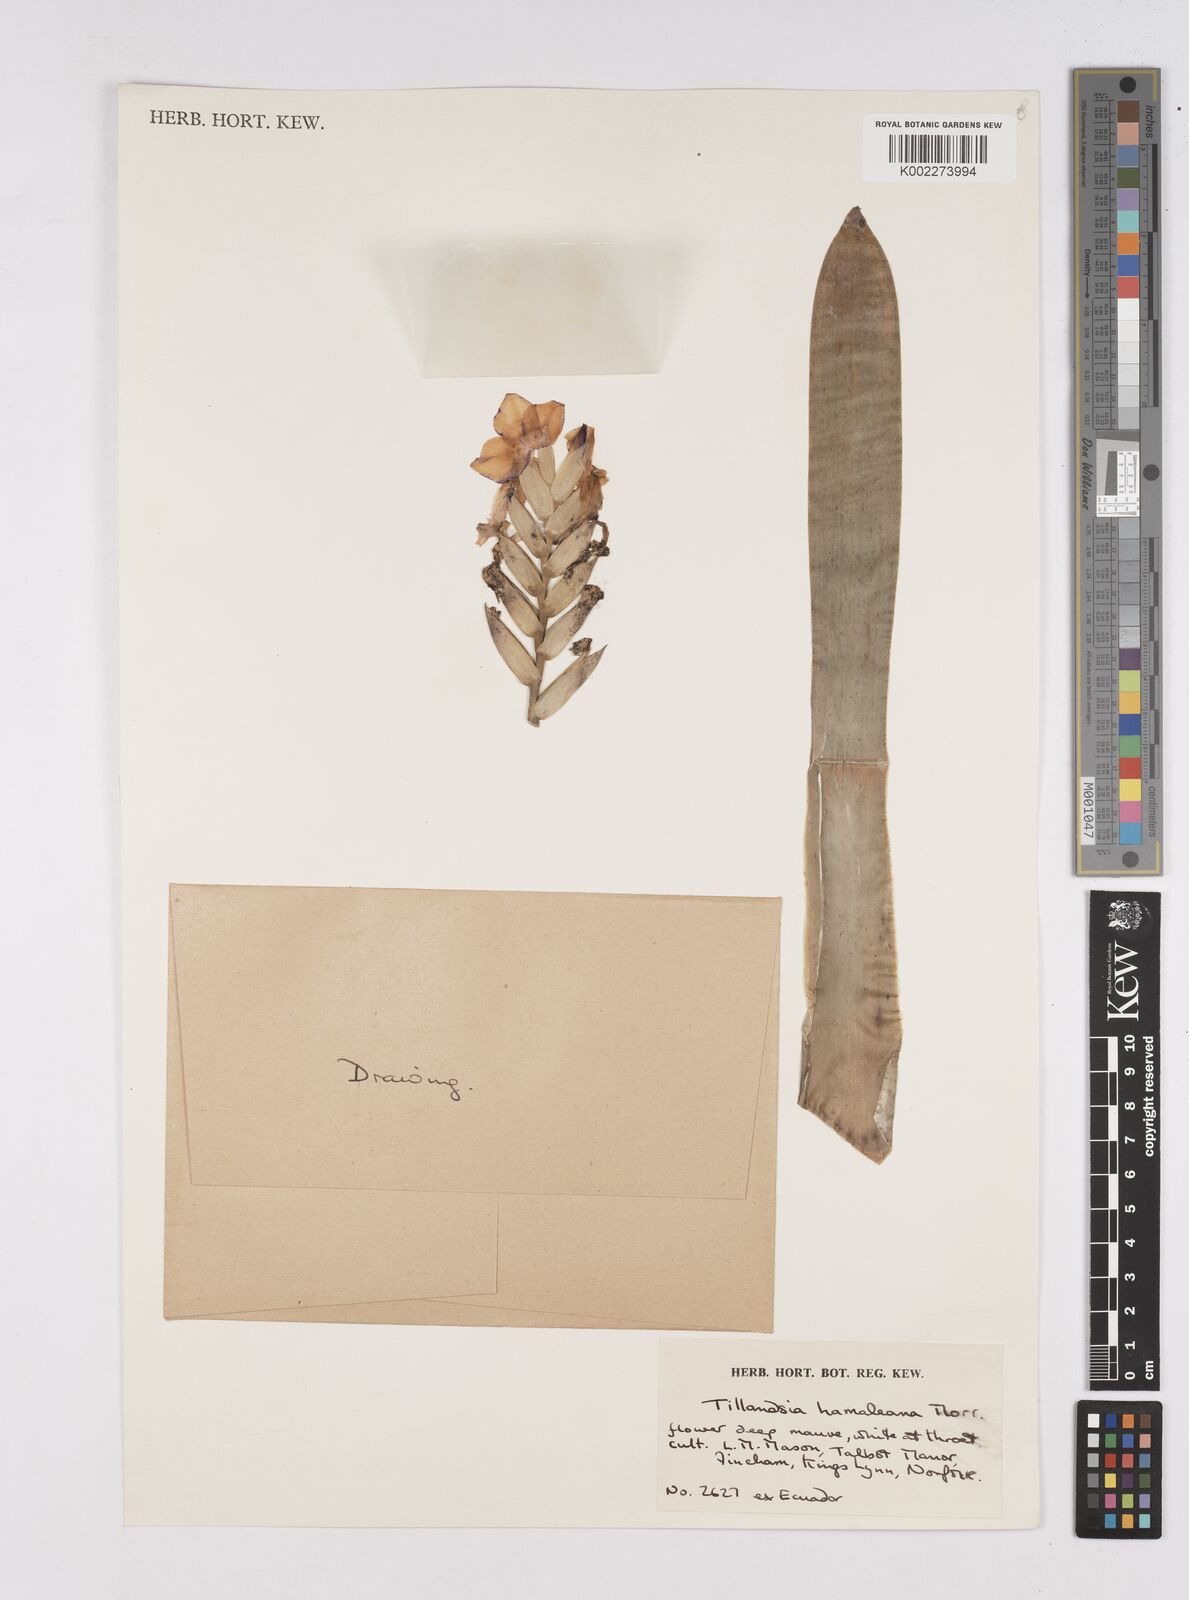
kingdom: Plantae
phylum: Tracheophyta
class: Liliopsida
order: Poales
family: Bromeliaceae
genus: Racinaea
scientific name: Racinaea hamaleana
